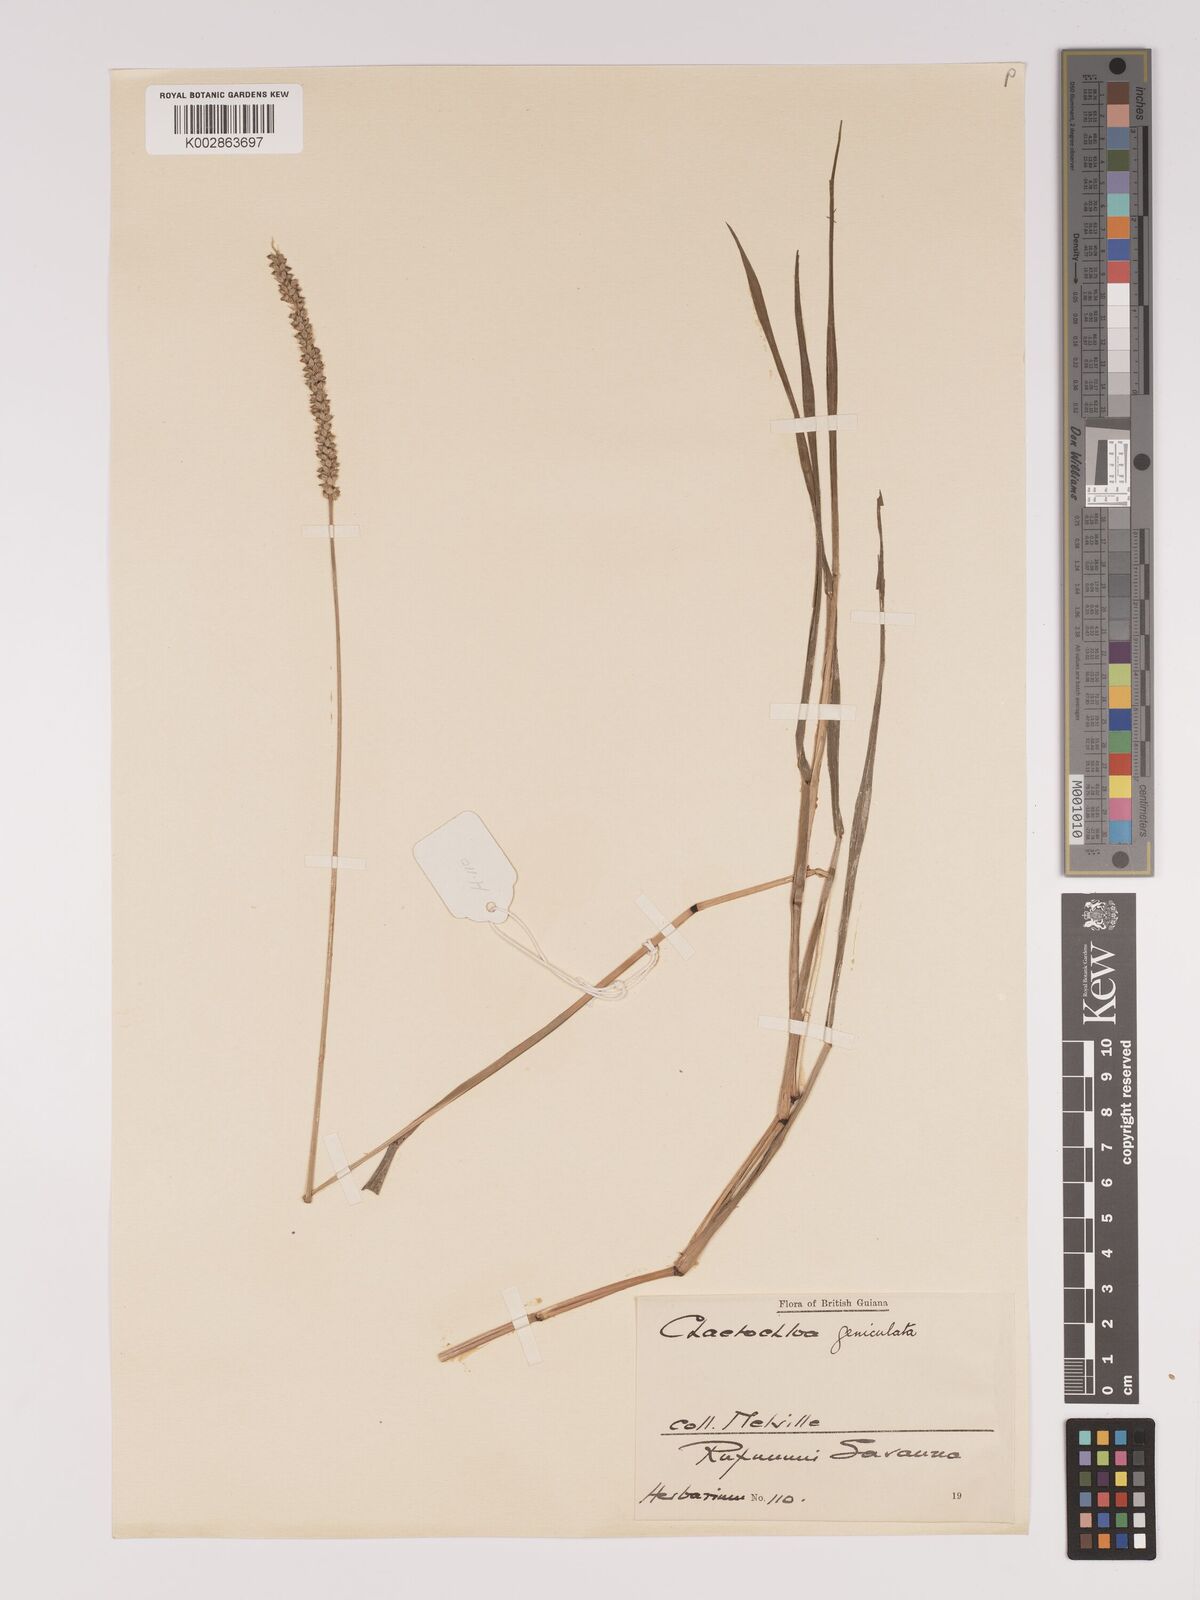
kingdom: Plantae
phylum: Tracheophyta
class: Liliopsida
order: Poales
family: Poaceae
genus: Setaria
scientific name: Setaria parviflora
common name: Knotroot bristle-grass
